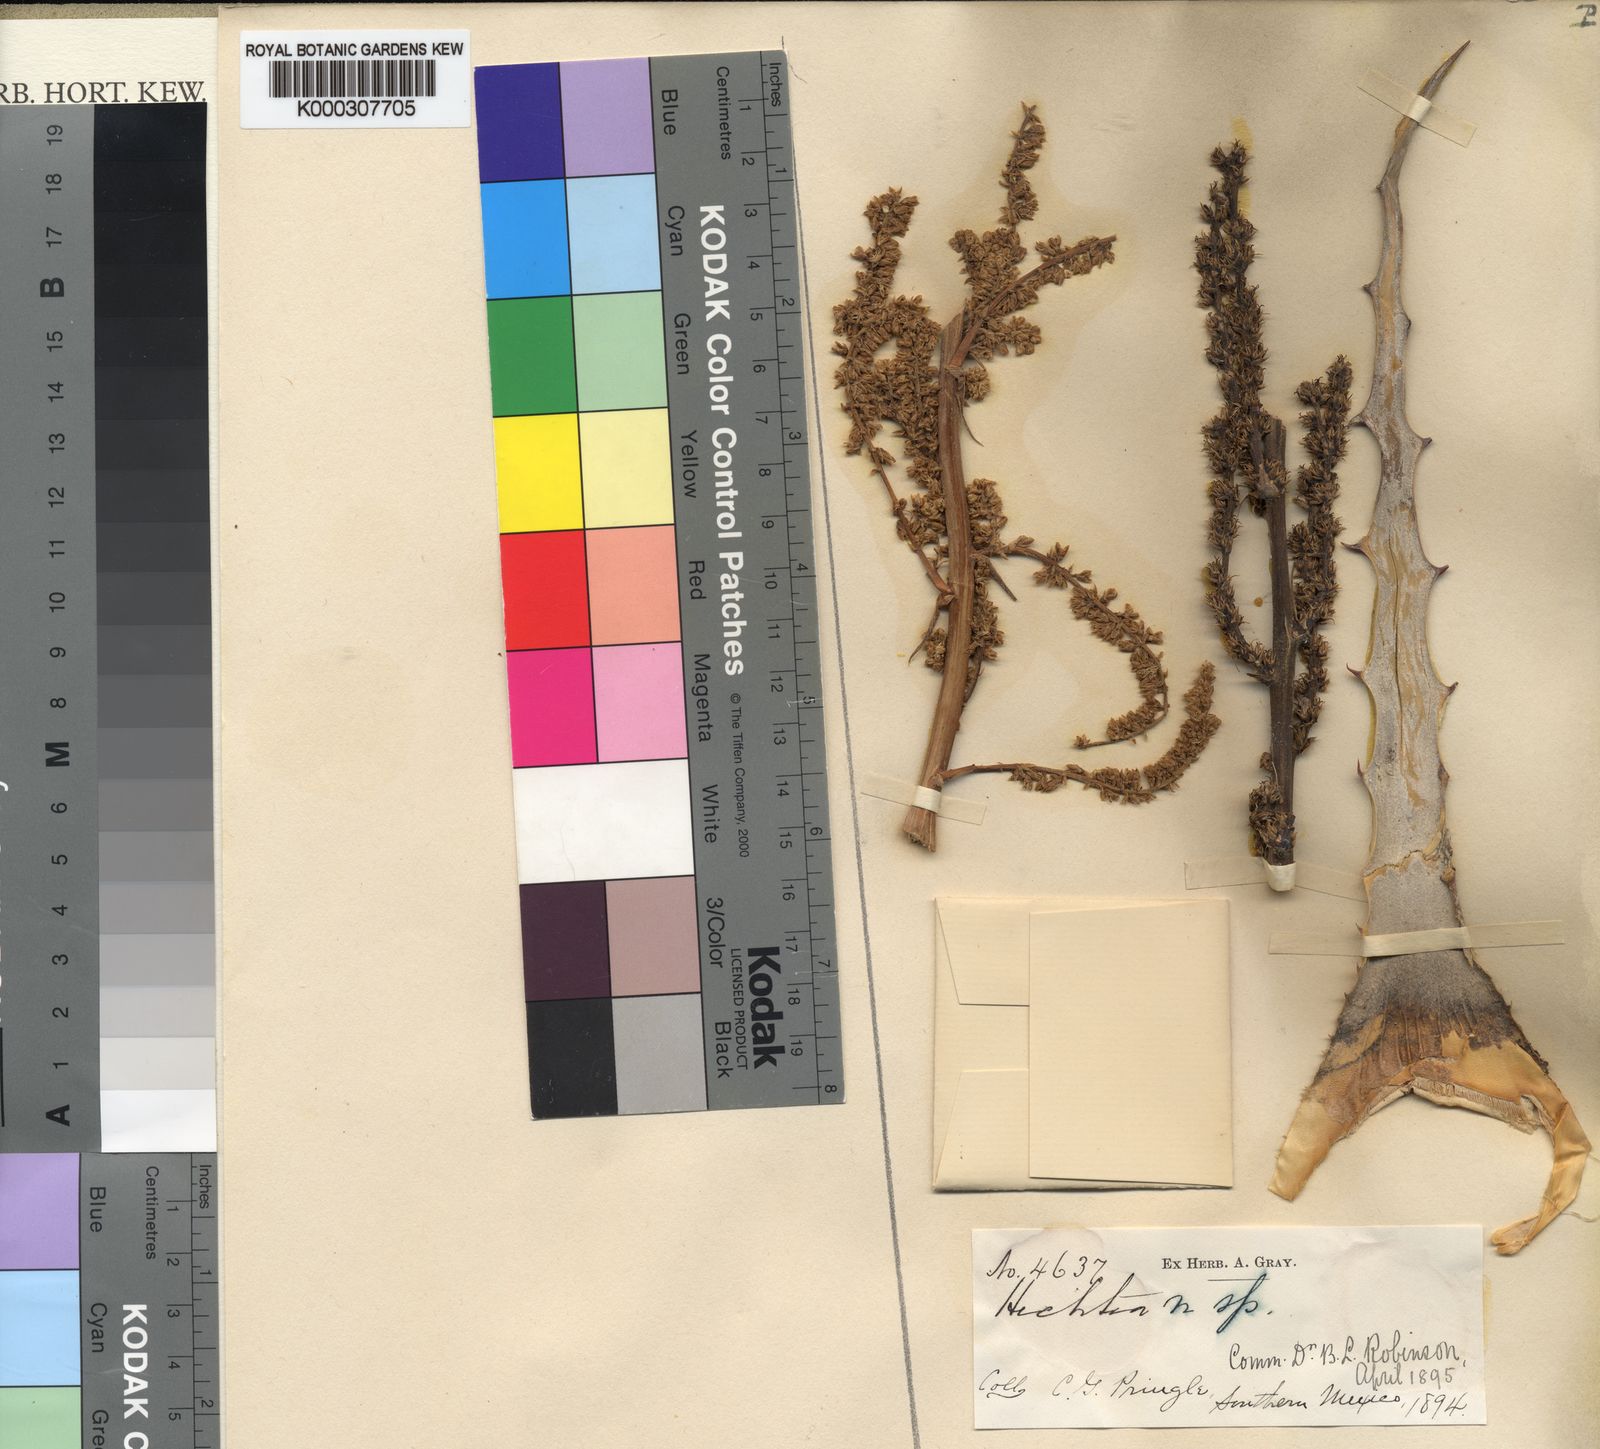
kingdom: Plantae
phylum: Tracheophyta
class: Liliopsida
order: Poales
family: Bromeliaceae
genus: Hechtia
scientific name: Hechtia pringlei
